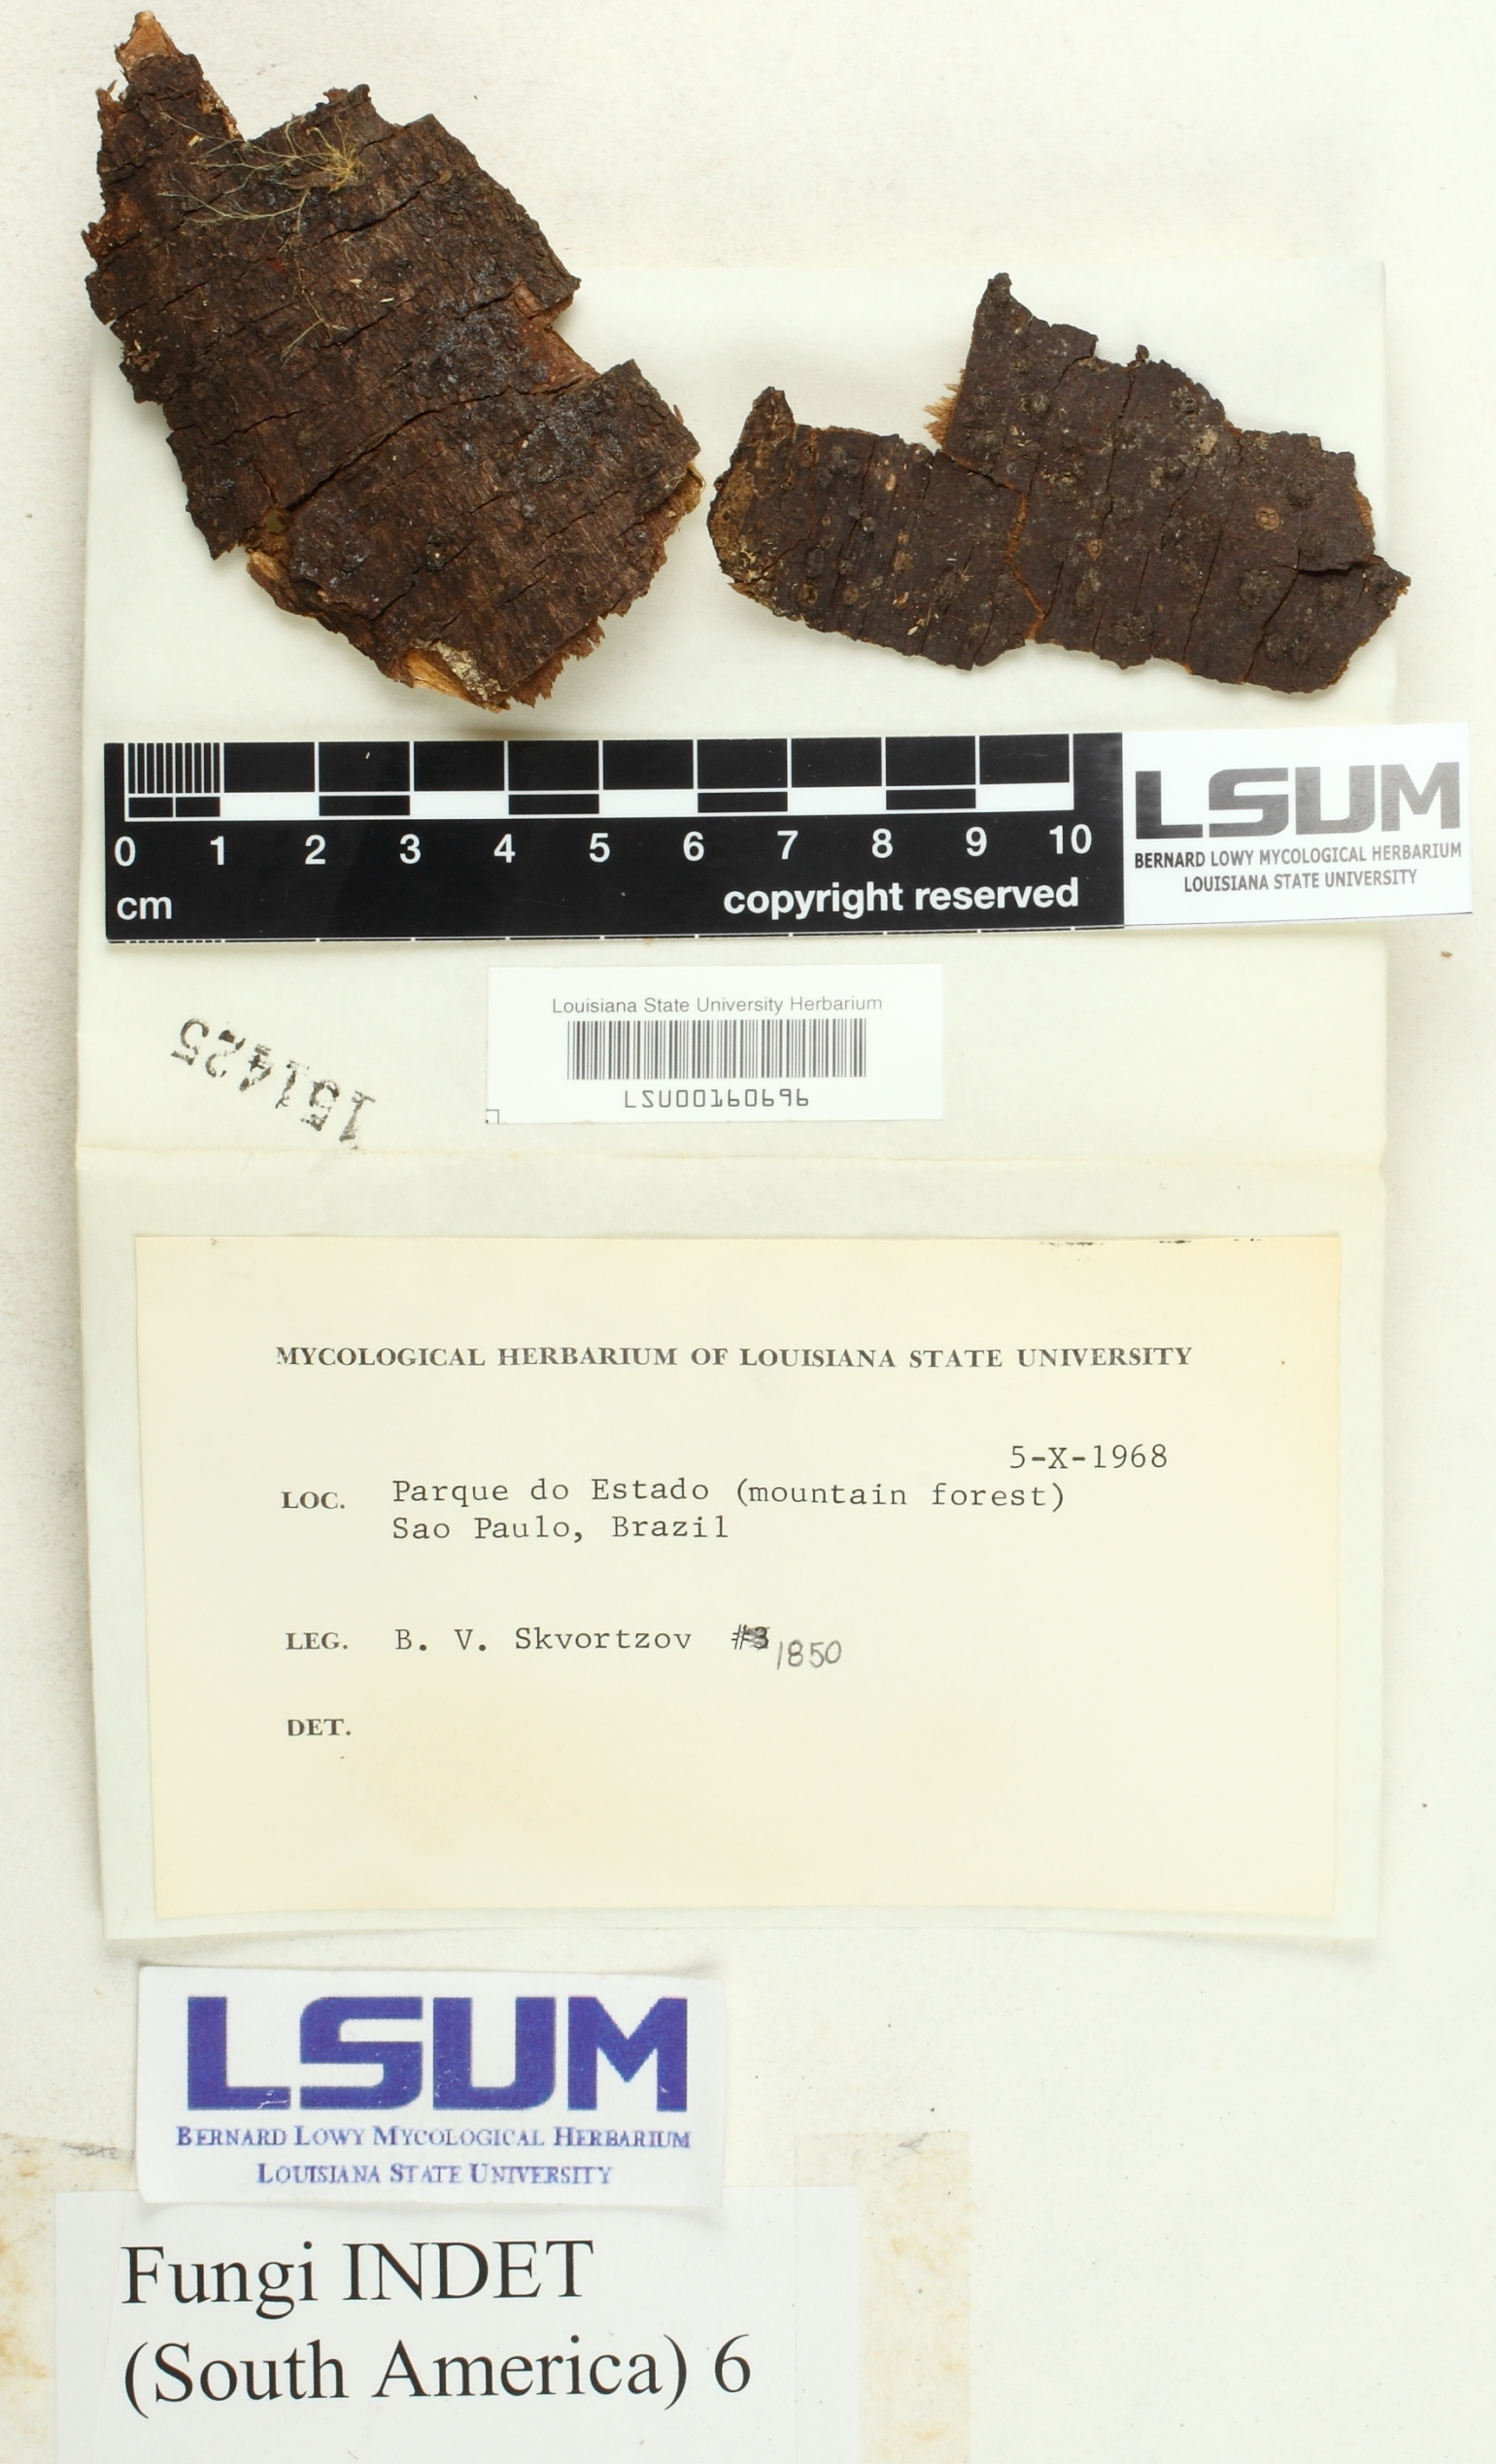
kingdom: Fungi
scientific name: Fungi
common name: Fungi
